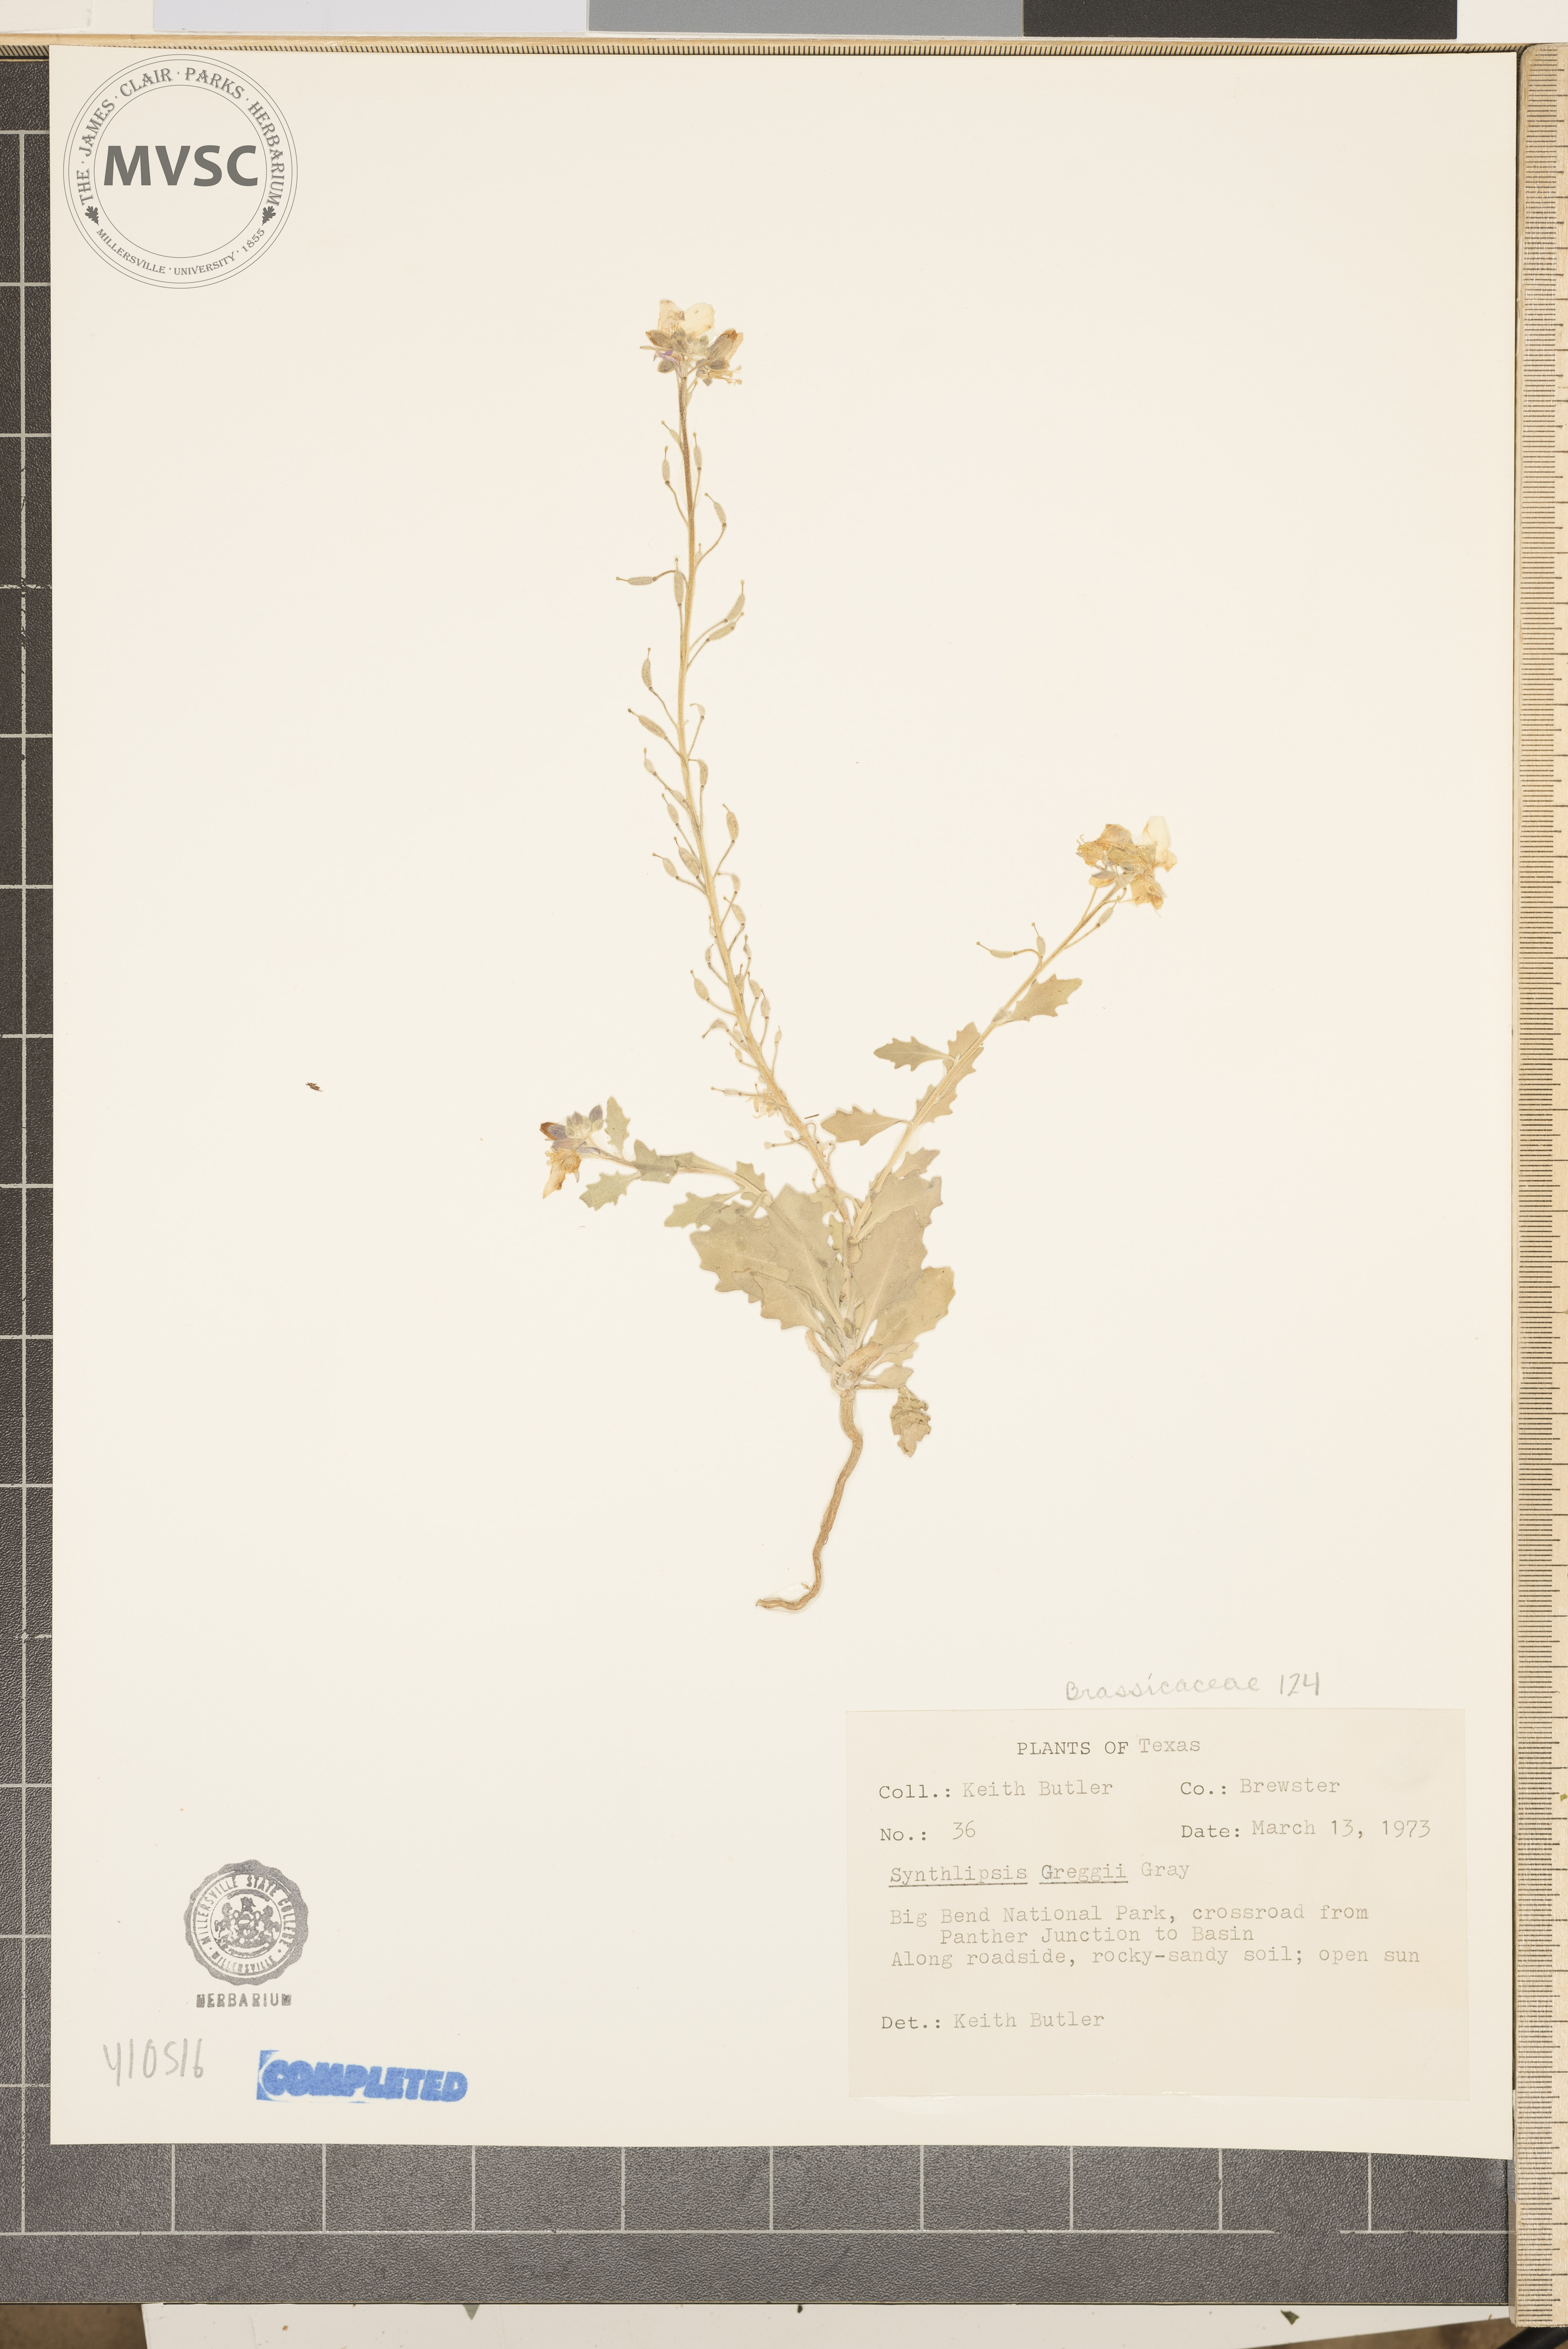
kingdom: Plantae
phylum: Tracheophyta
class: Magnoliopsida
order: Brassicales
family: Brassicaceae
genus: Synthlipsis
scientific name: Synthlipsis greggii
